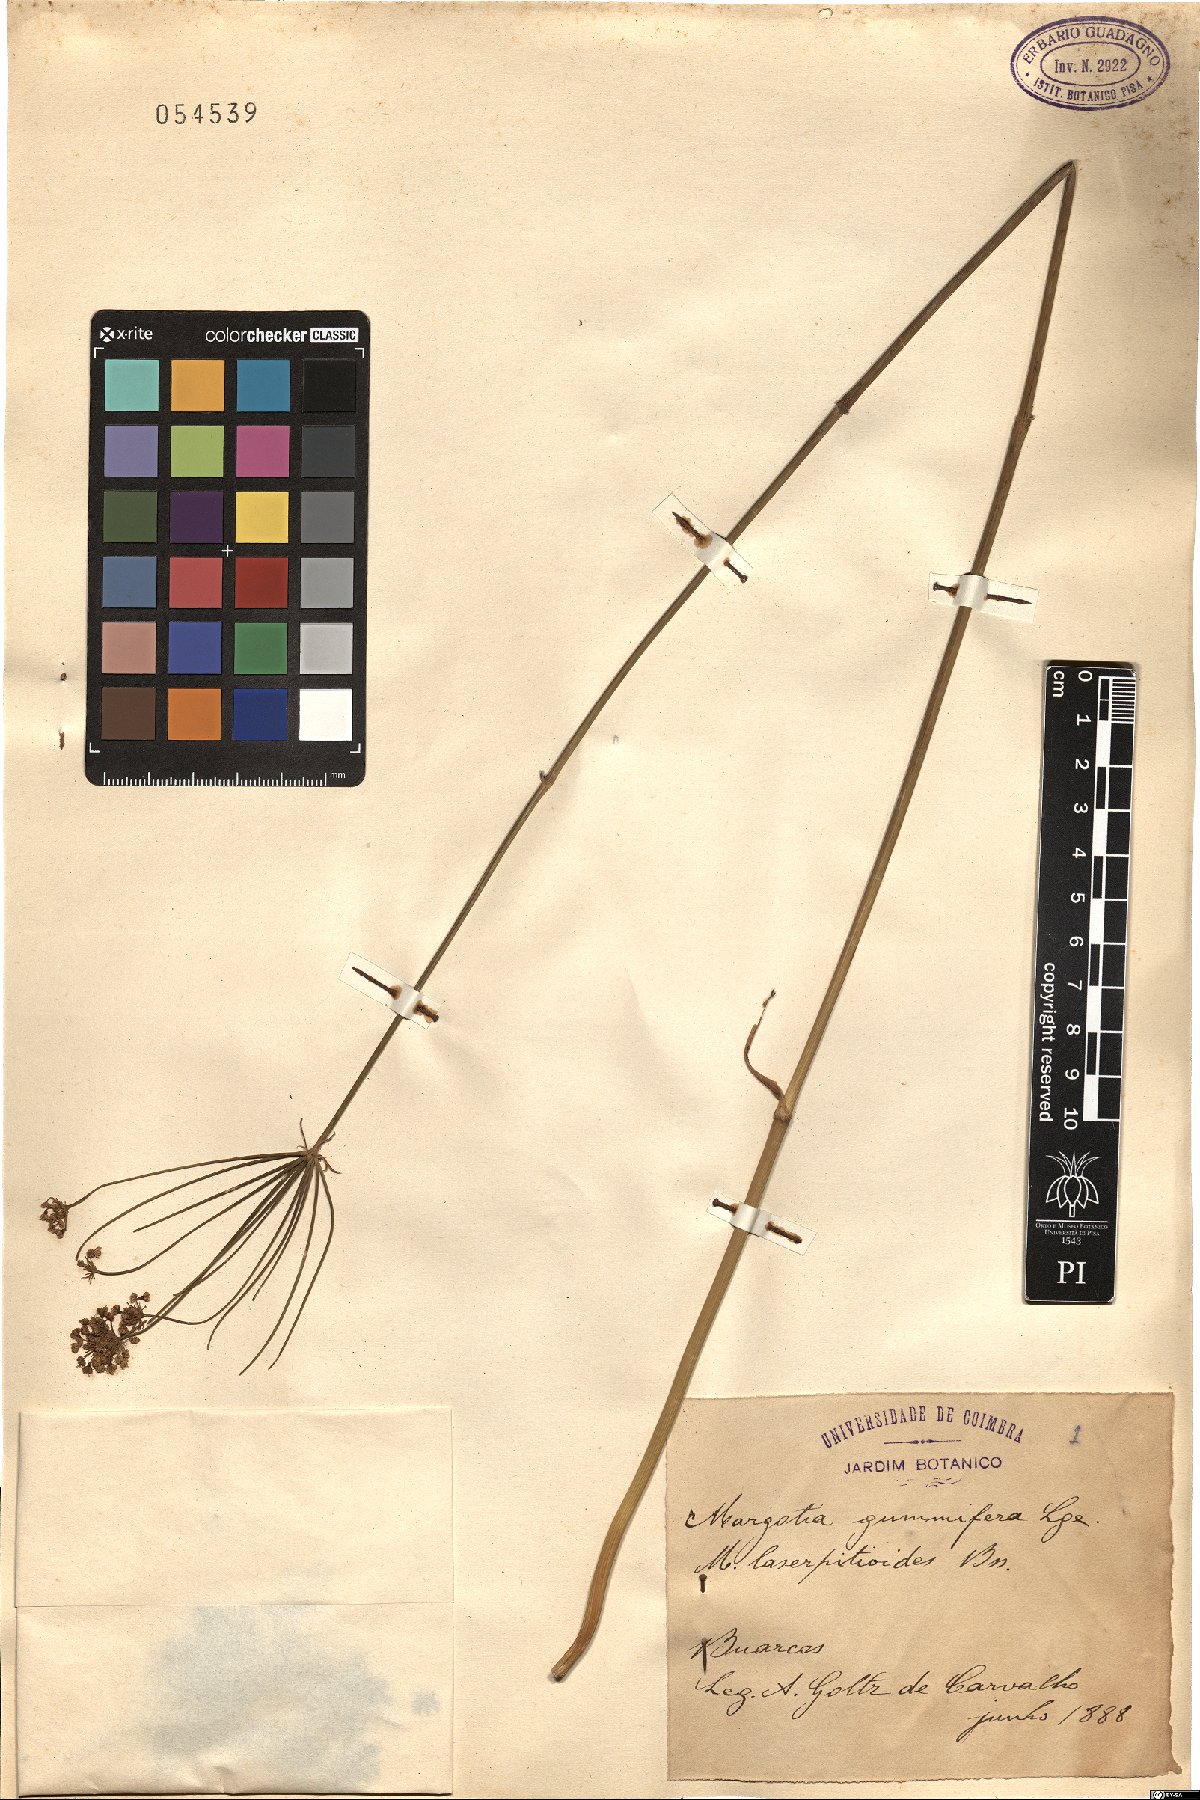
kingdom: Plantae
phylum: Tracheophyta
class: Magnoliopsida
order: Apiales
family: Apiaceae
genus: Thapsia
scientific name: Thapsia gummifera
